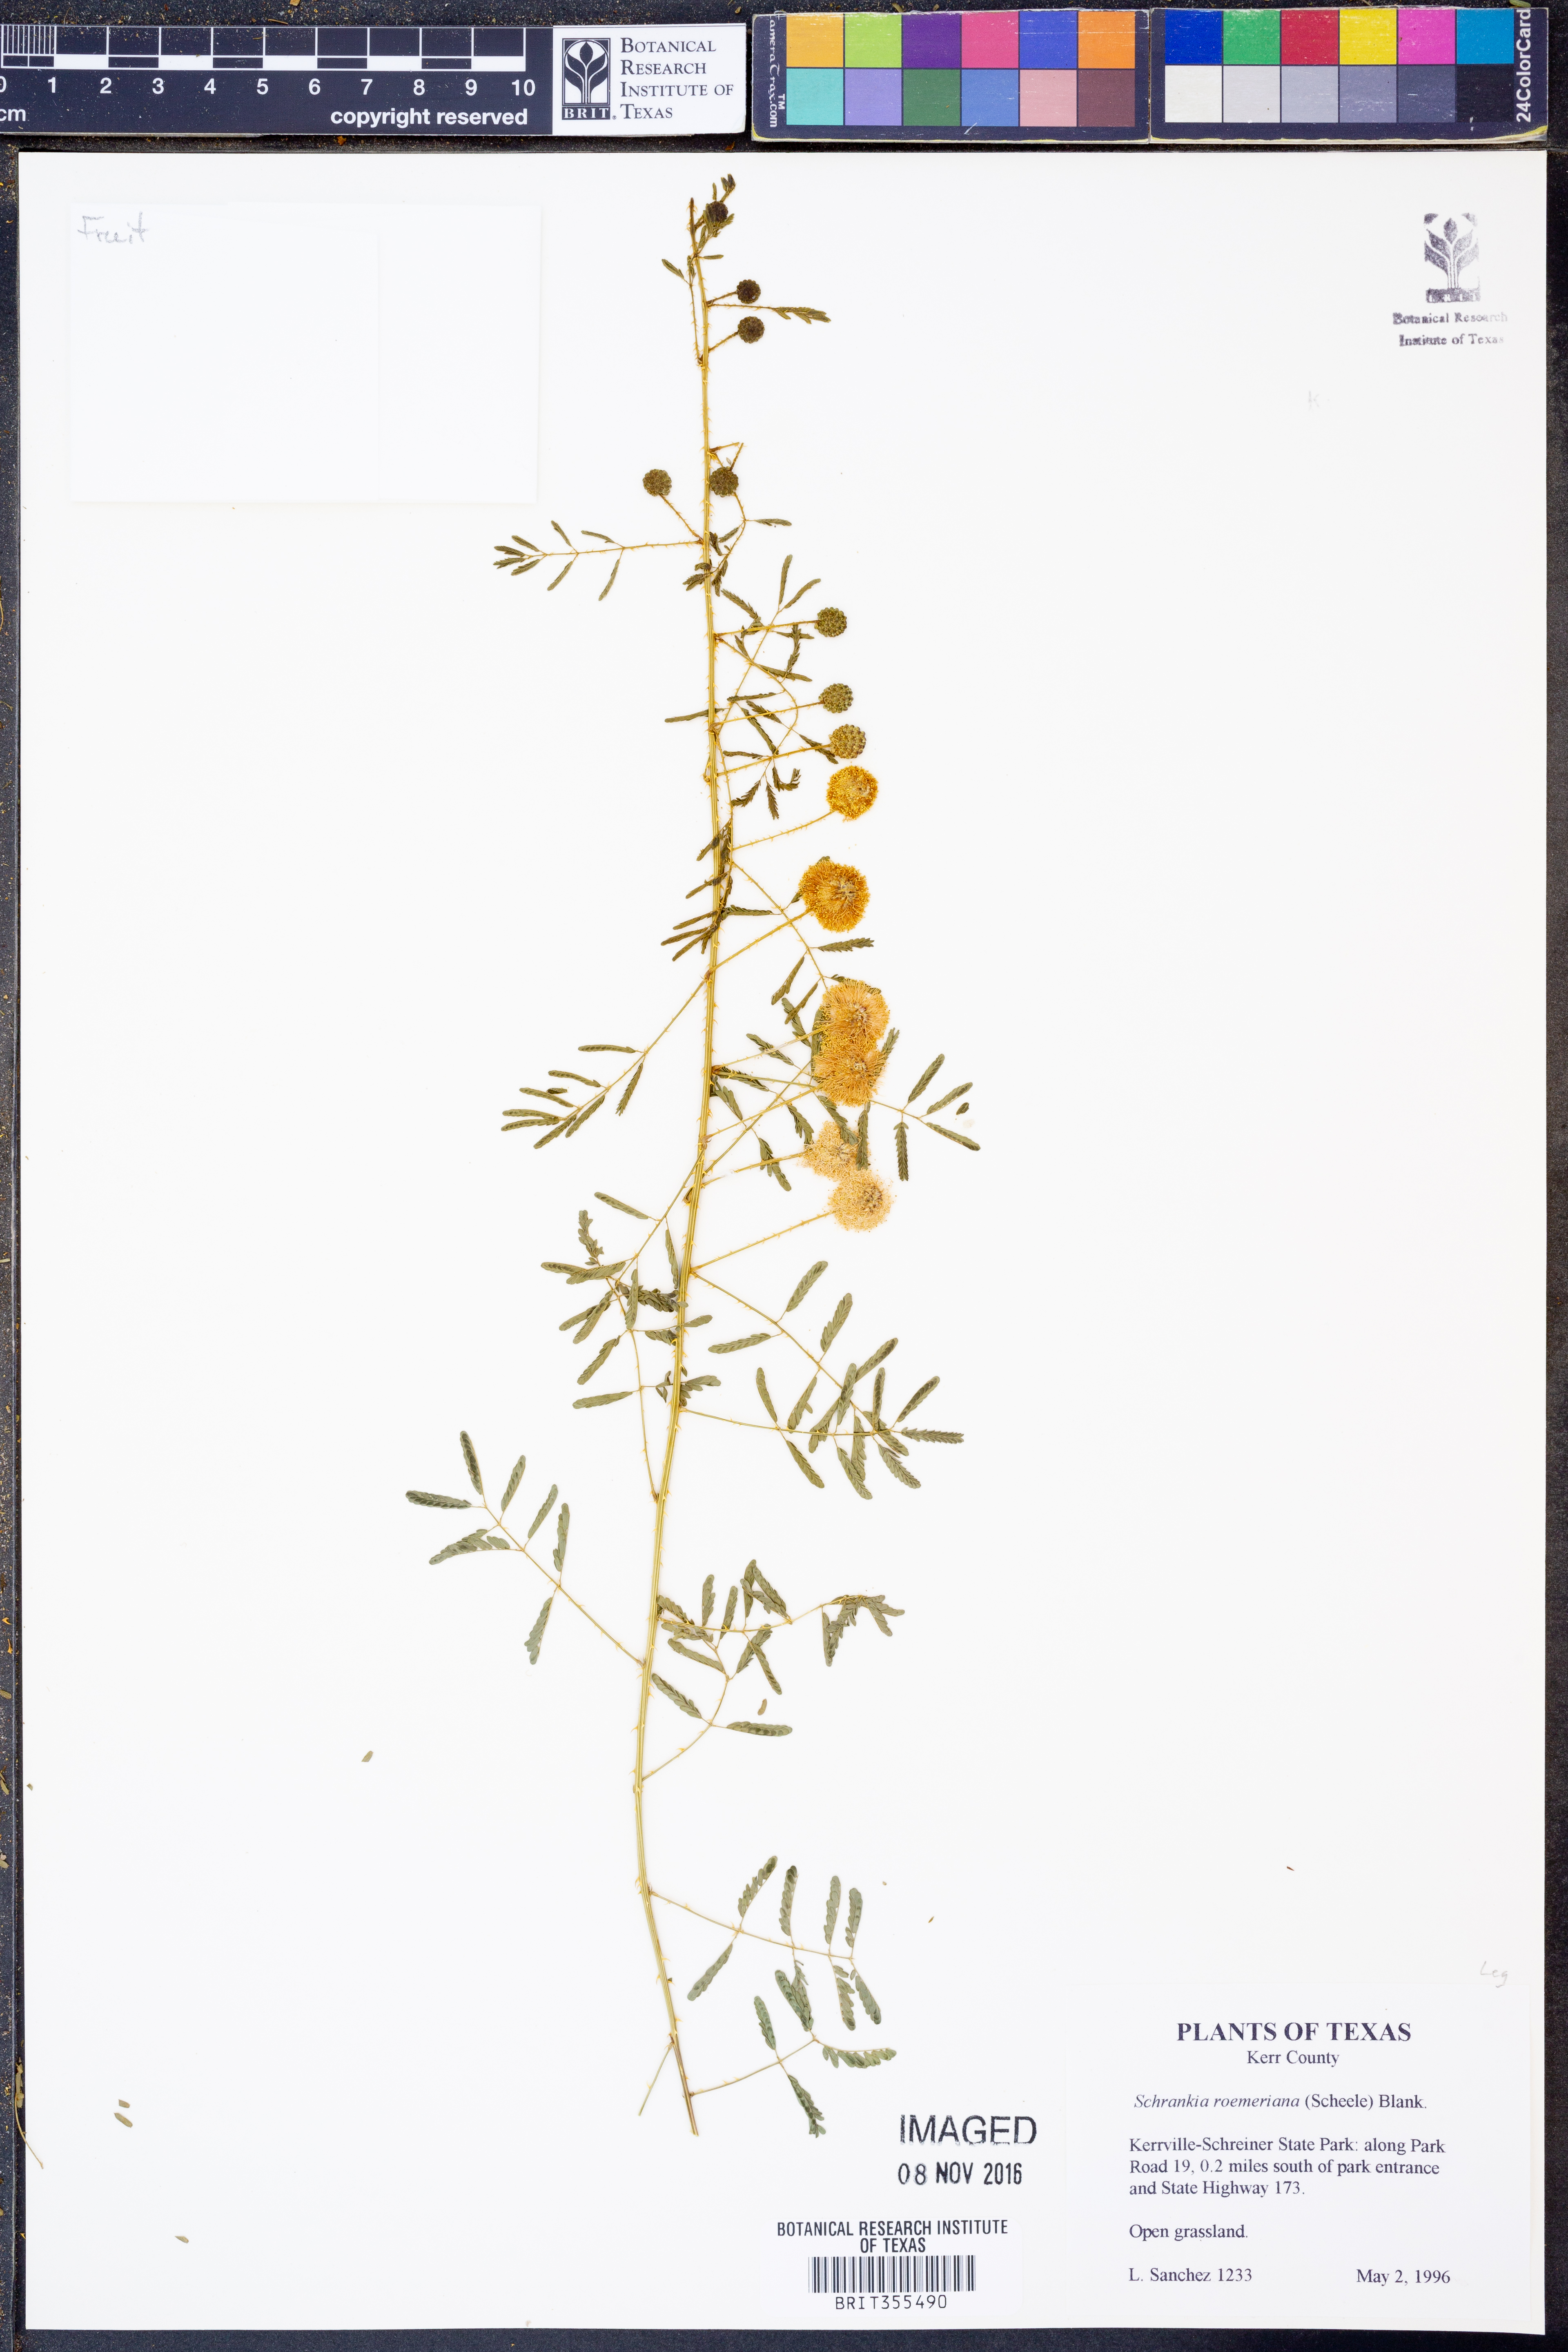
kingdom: Plantae
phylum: Tracheophyta
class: Magnoliopsida
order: Fabales
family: Fabaceae
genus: Mimosa
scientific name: Mimosa quadrivalvis
